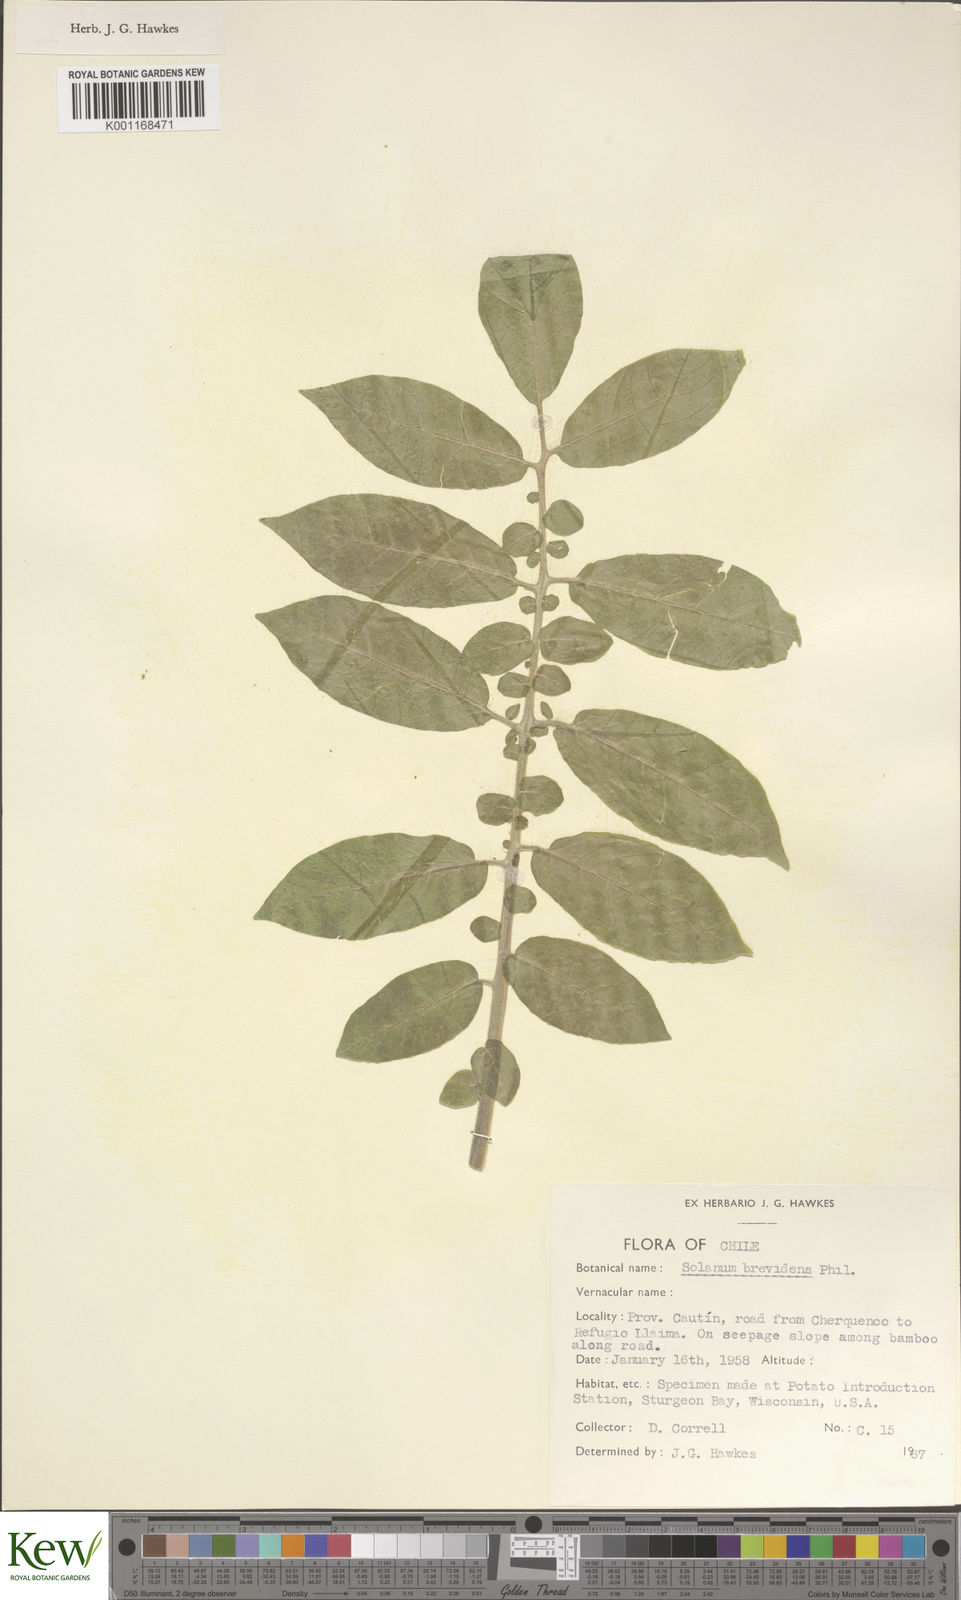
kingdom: Plantae
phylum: Tracheophyta
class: Magnoliopsida
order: Solanales
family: Solanaceae
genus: Solanum
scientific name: Solanum palustre
